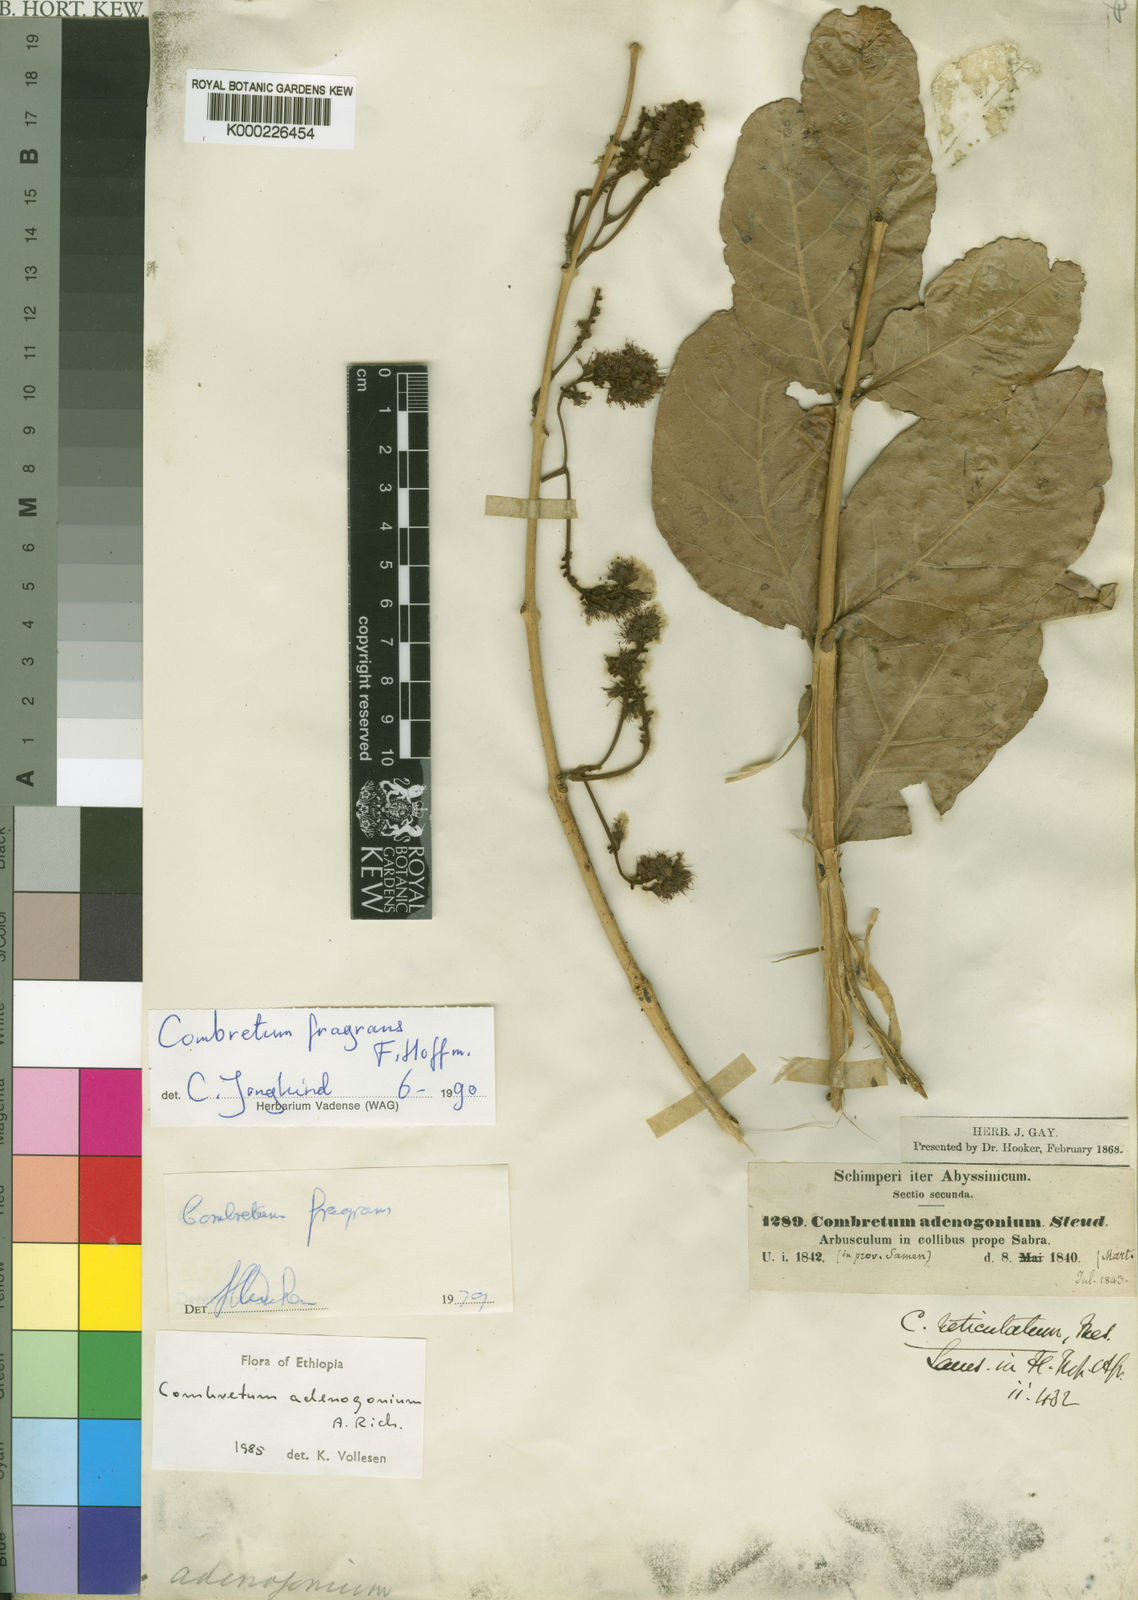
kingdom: Plantae
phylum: Tracheophyta
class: Magnoliopsida
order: Myrtales
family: Combretaceae
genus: Combretum
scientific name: Combretum adenogonium
